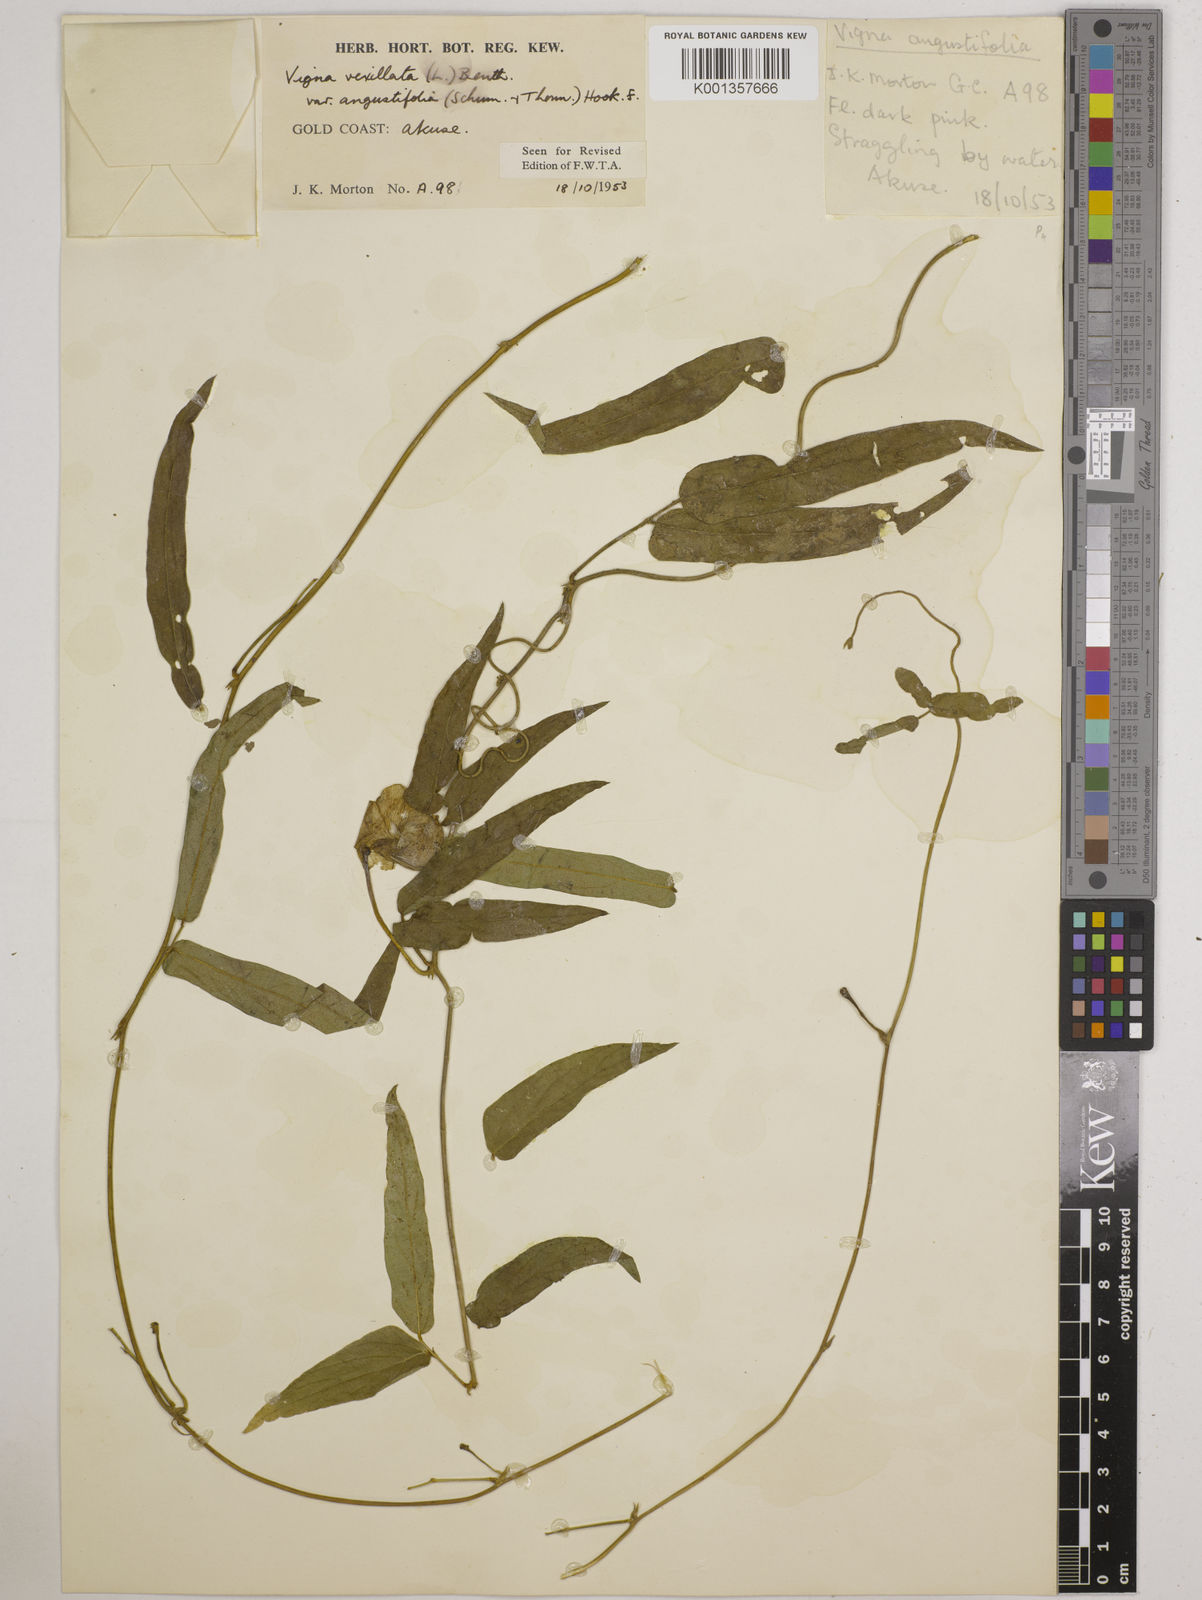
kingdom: Plantae
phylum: Tracheophyta
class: Magnoliopsida
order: Fabales
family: Fabaceae
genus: Vigna
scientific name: Vigna vexillata
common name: Zombi pea
